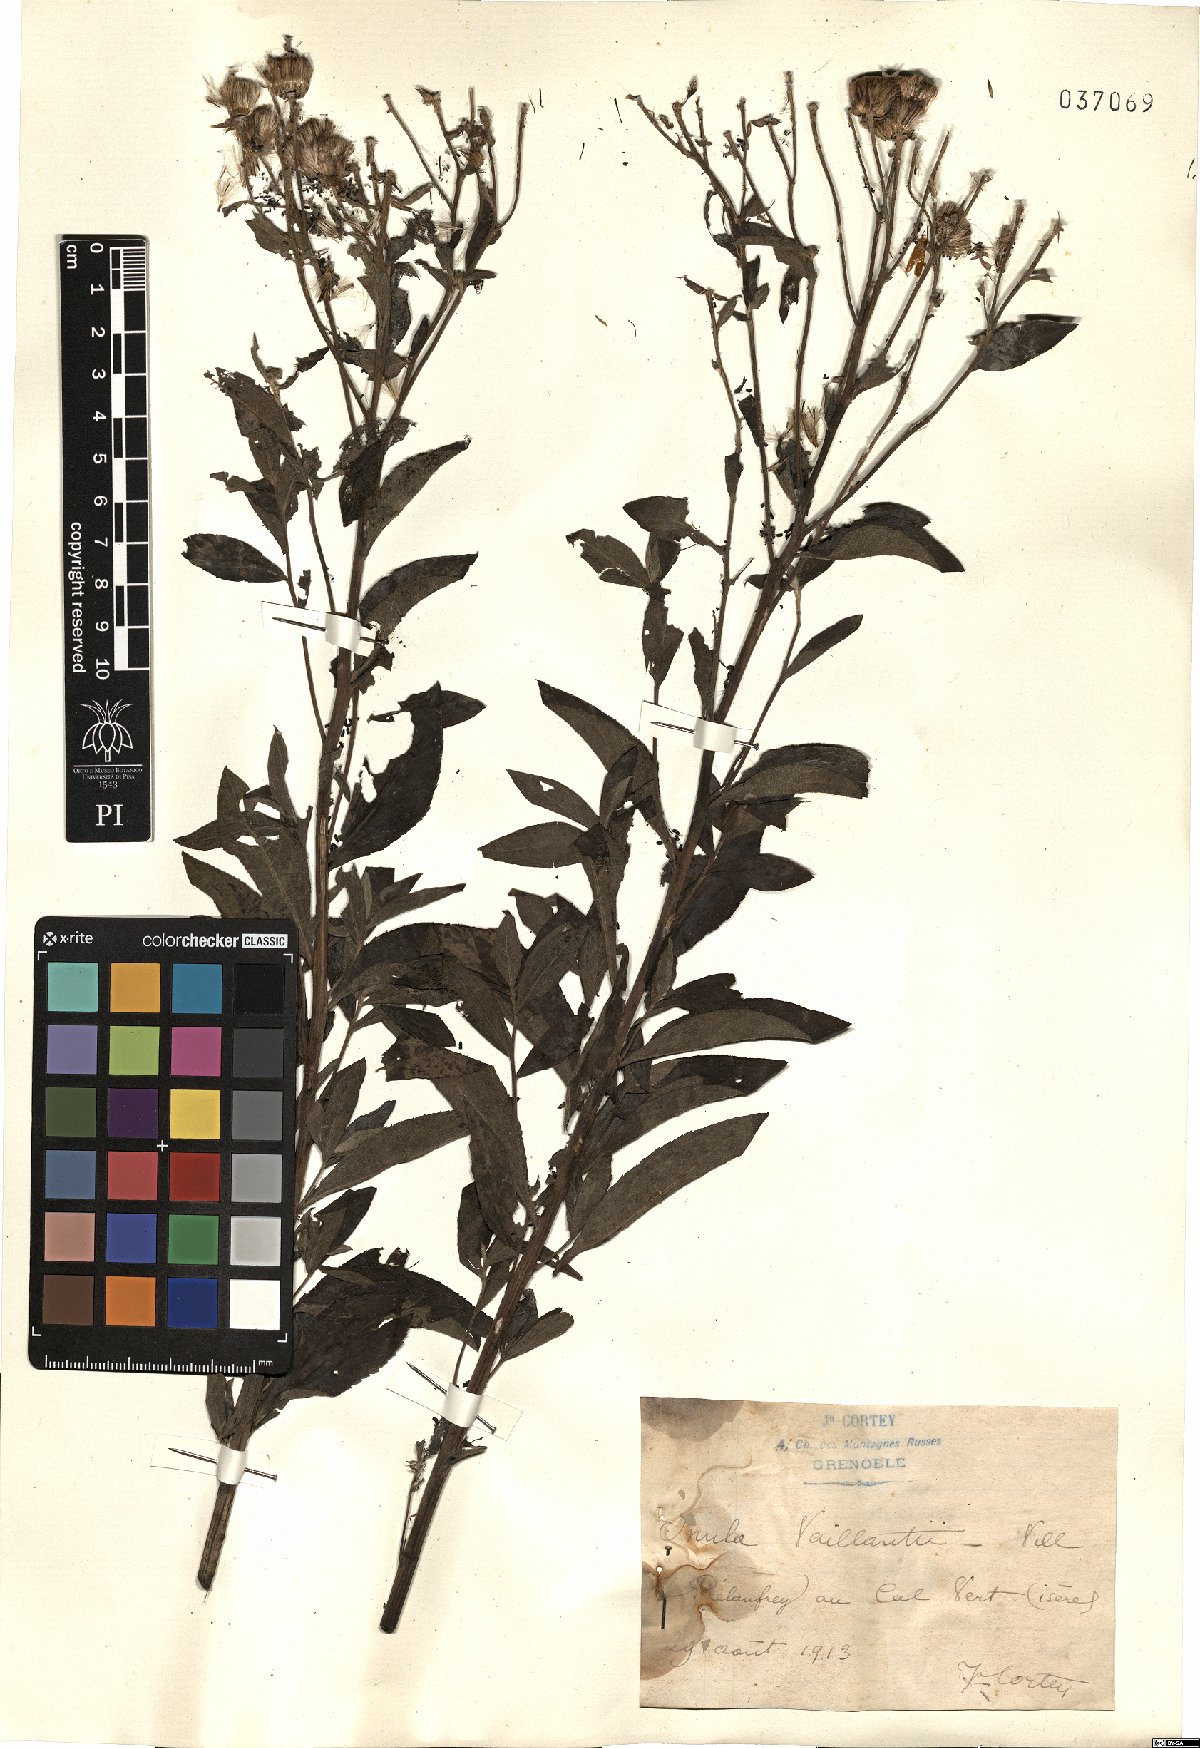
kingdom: Plantae
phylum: Tracheophyta
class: Magnoliopsida
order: Asterales
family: Asteraceae
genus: Pentanema
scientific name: Pentanema helveticum
